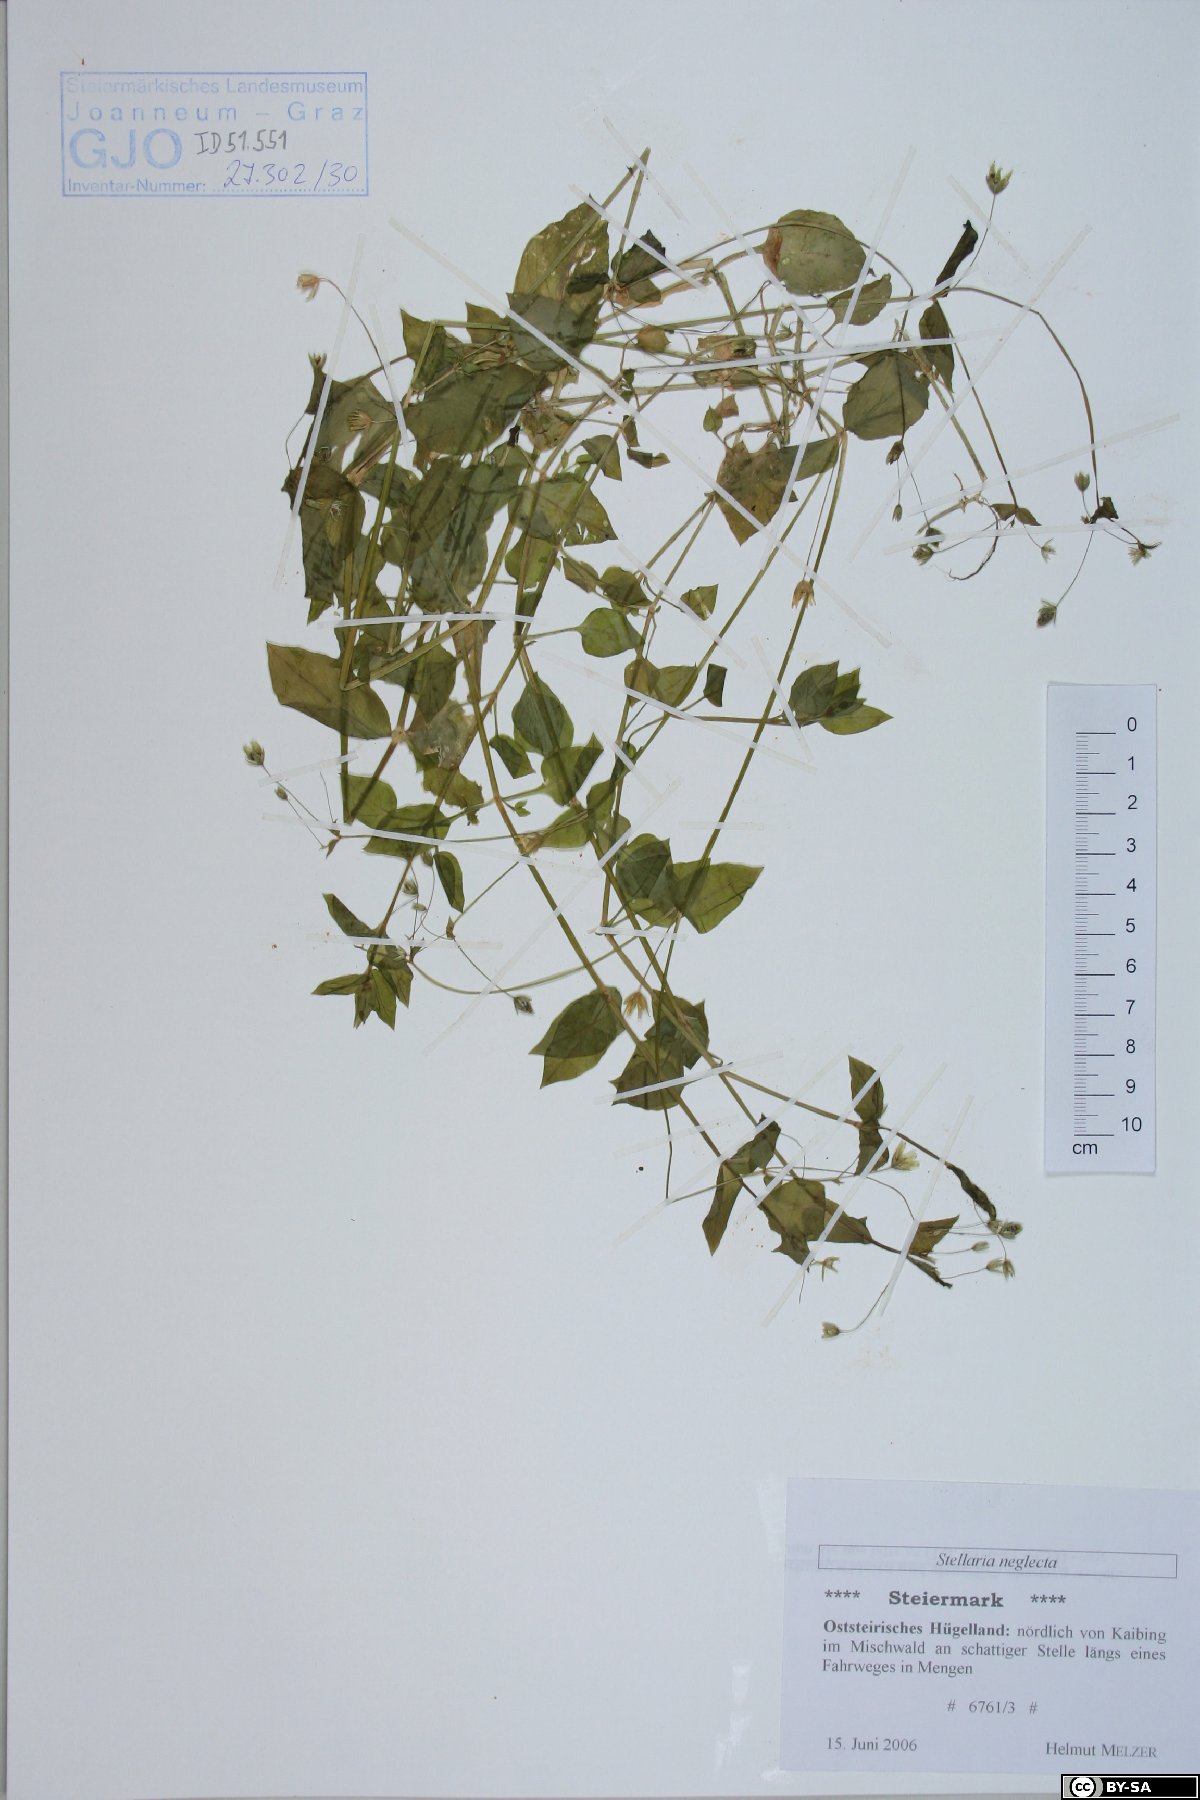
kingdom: Plantae
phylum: Tracheophyta
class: Magnoliopsida
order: Caryophyllales
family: Caryophyllaceae
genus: Stellaria
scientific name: Stellaria neglecta
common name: Greater chickweed
